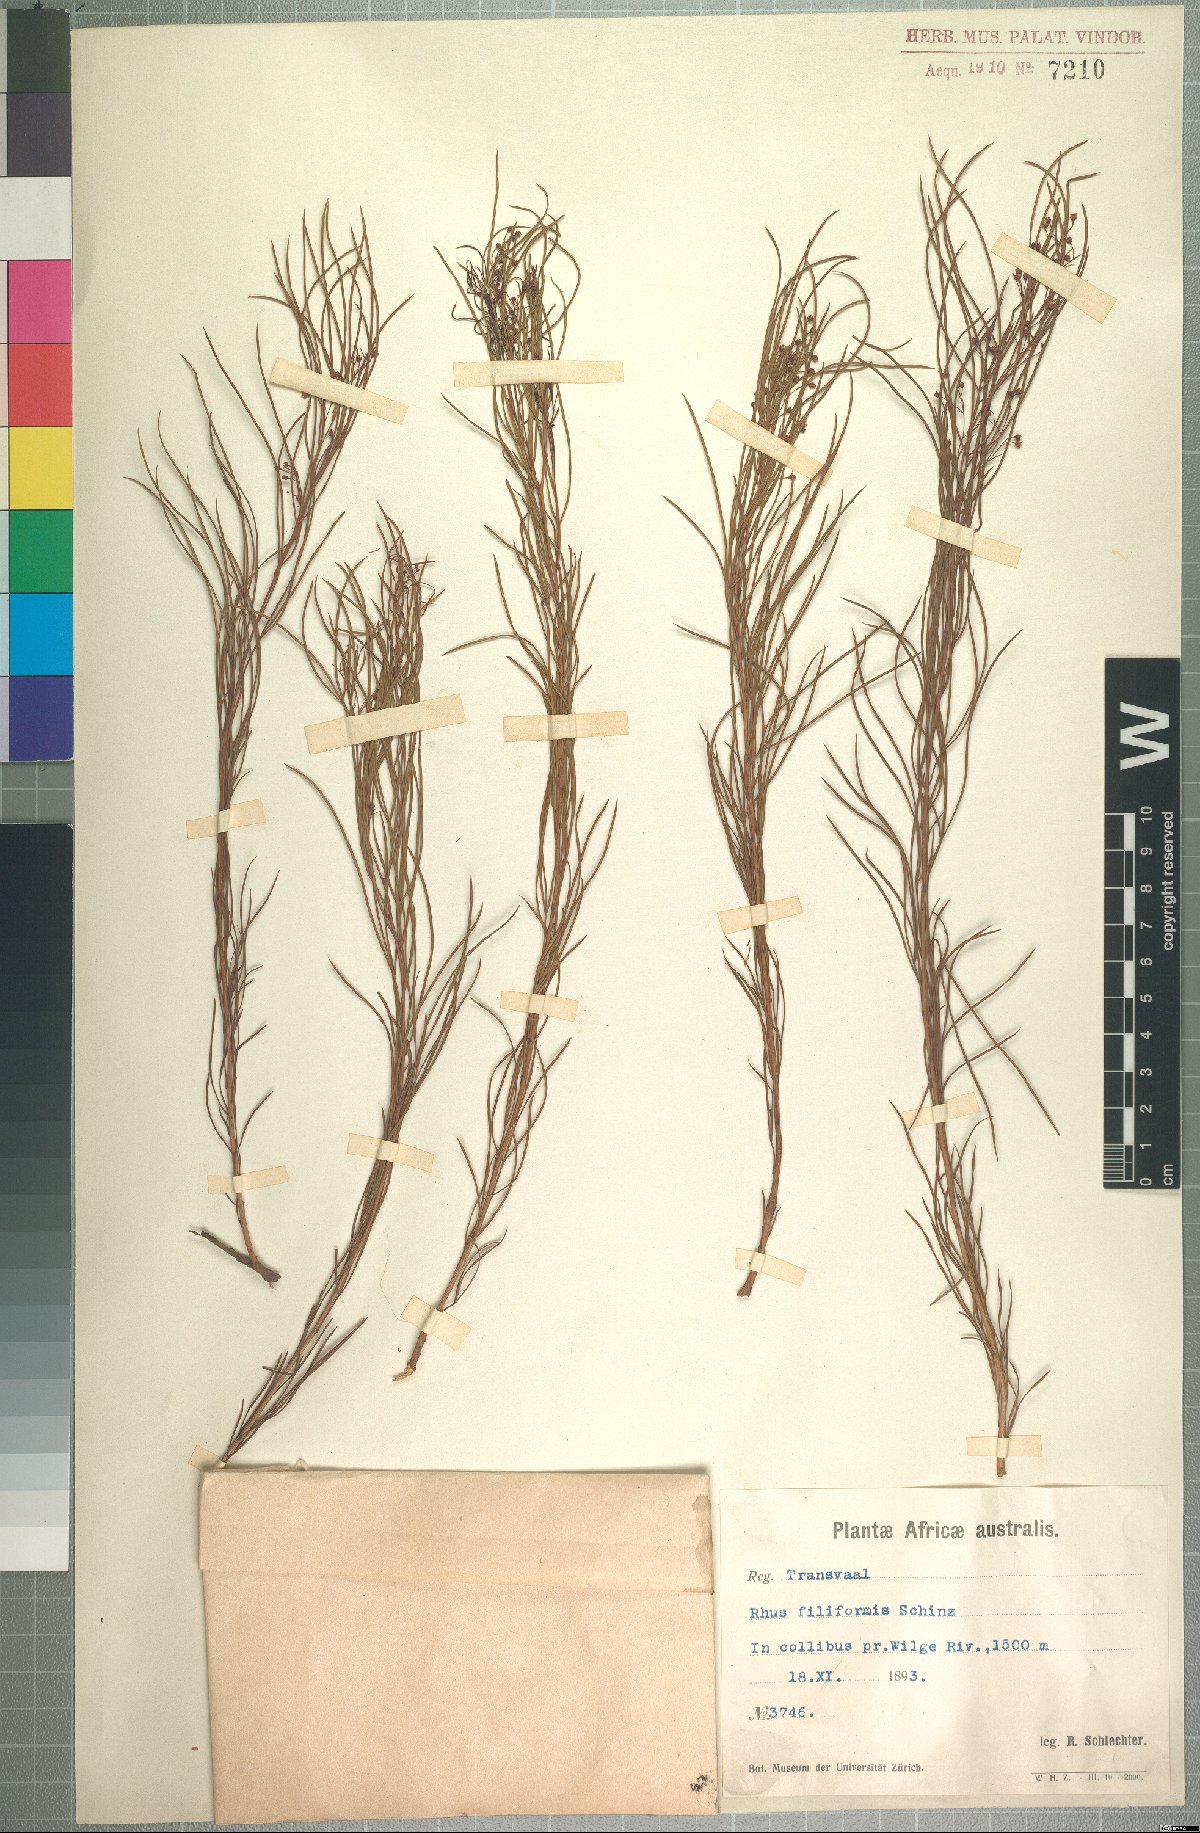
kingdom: Plantae
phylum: Tracheophyta
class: Magnoliopsida
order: Sapindales
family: Anacardiaceae
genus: Searsia
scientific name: Searsia gracillima
